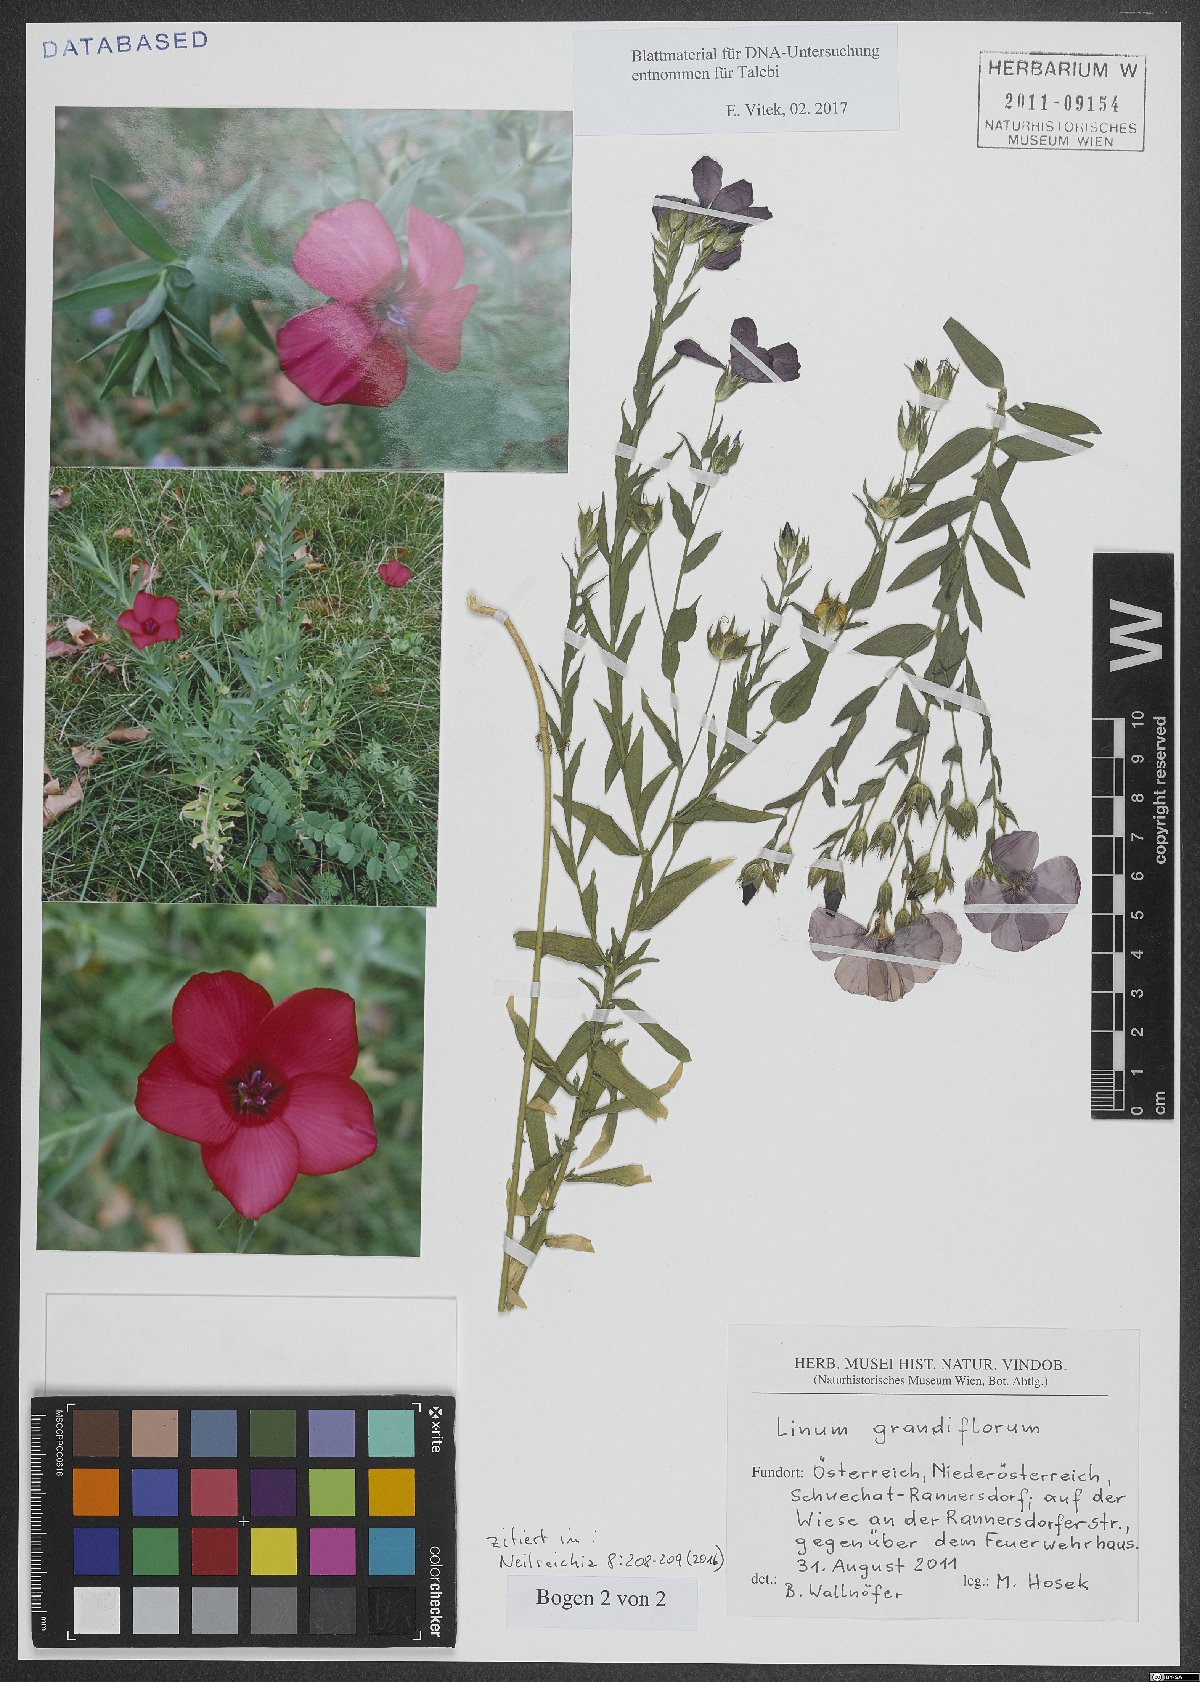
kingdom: Plantae
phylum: Tracheophyta
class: Magnoliopsida
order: Malpighiales
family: Linaceae
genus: Linum
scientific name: Linum grandiflorum
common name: Crimson flax
